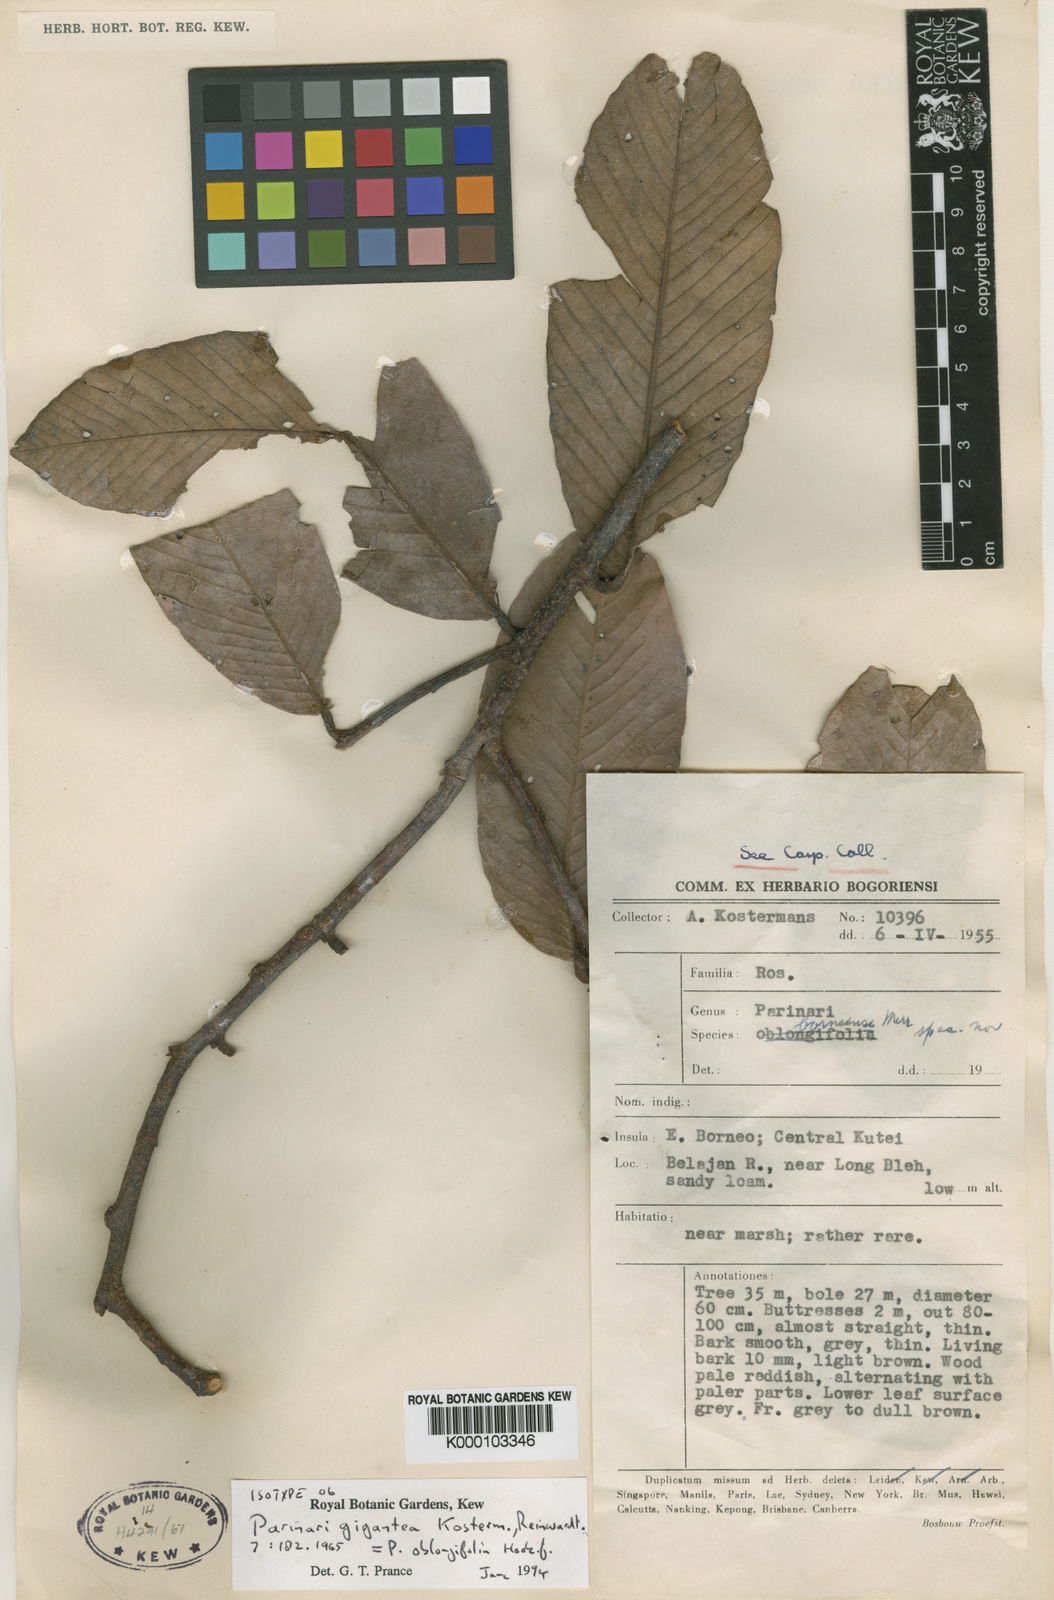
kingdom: Plantae
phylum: Tracheophyta
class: Magnoliopsida
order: Malpighiales
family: Chrysobalanaceae
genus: Parinari
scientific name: Parinari oblongifolia
